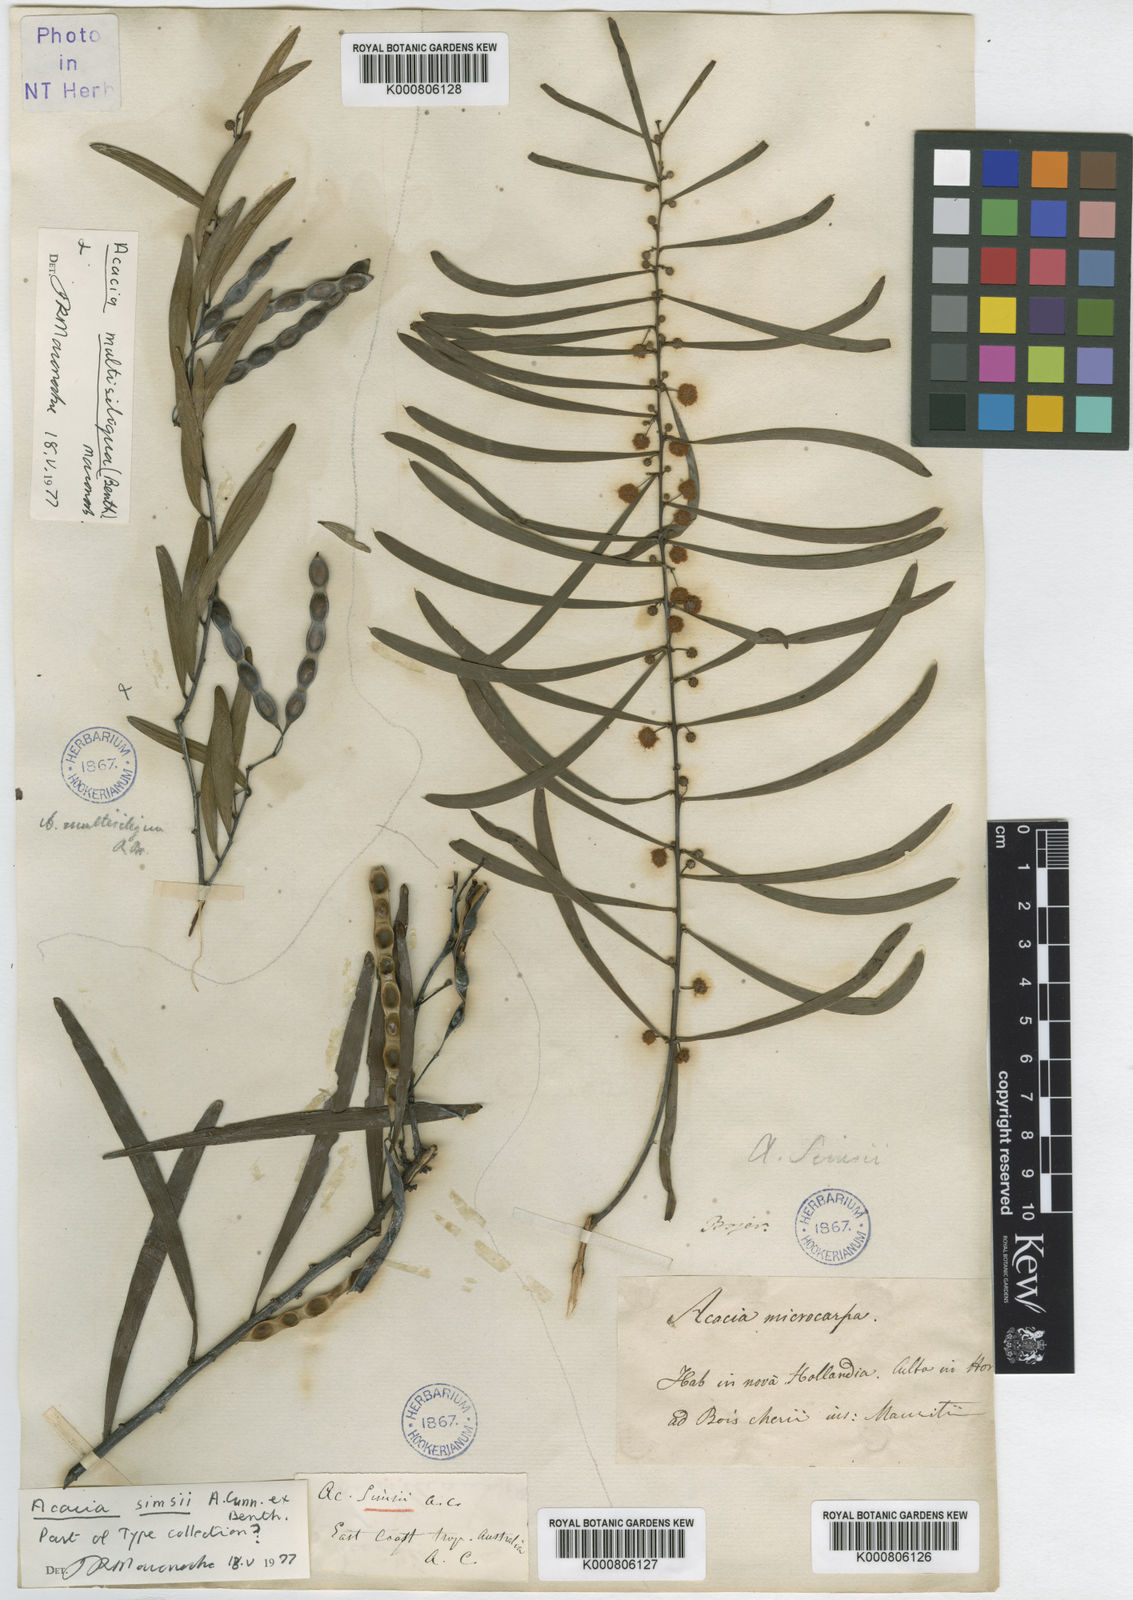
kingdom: Plantae
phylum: Tracheophyta
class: Magnoliopsida
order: Fabales
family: Fabaceae
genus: Acacia
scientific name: Acacia
